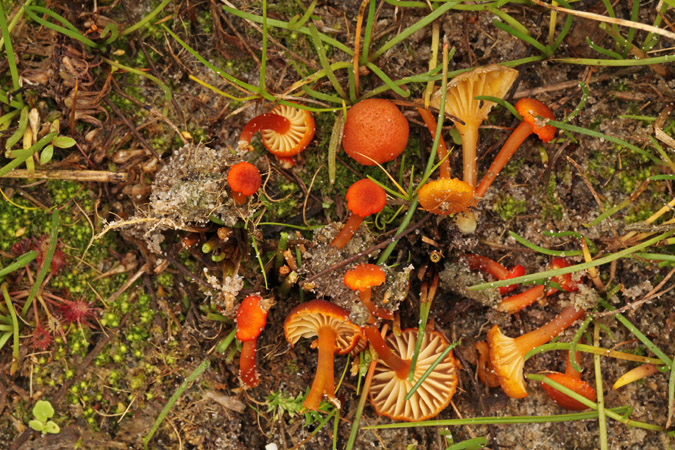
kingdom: Fungi
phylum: Basidiomycota
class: Agaricomycetes
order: Agaricales
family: Hygrophoraceae
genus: Hygrocybe
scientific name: Hygrocybe coccineocrenata
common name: tørvemos-vokshat
